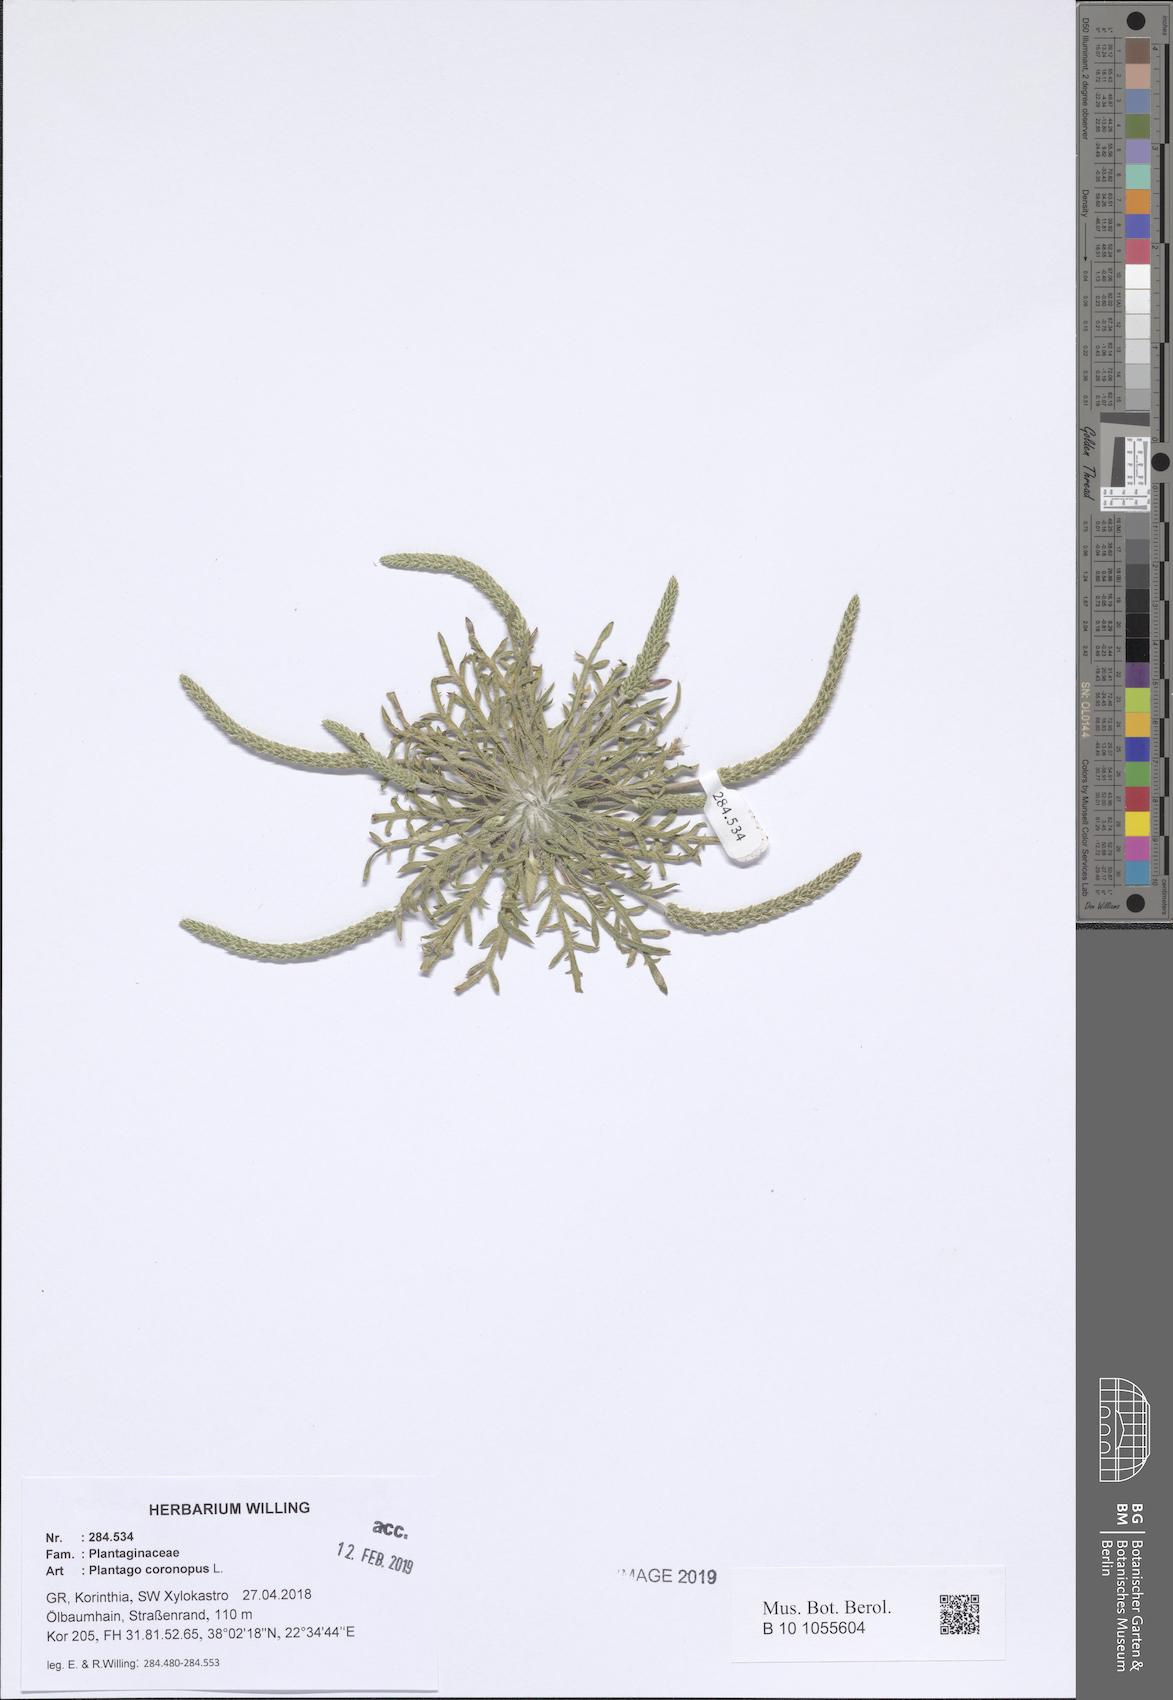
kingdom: Plantae
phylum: Tracheophyta
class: Magnoliopsida
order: Lamiales
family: Plantaginaceae
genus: Plantago
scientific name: Plantago coronopus
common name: Buck's-horn plantain
